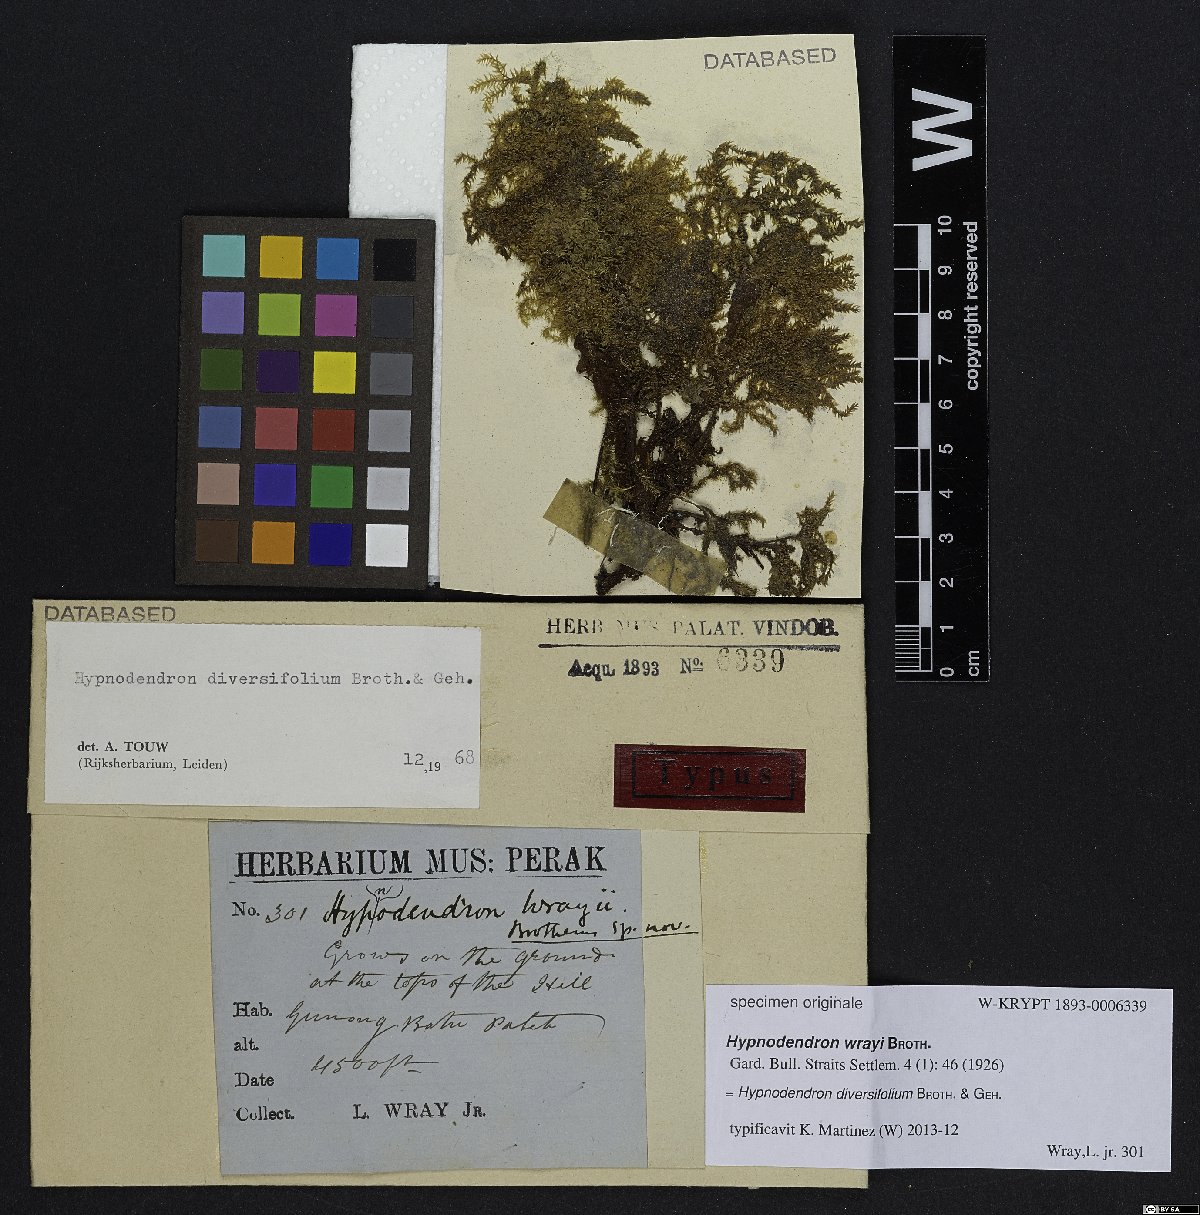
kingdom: Plantae
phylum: Bryophyta
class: Bryopsida
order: Hypnodendrales
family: Spiridentaceae
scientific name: Spiridentaceae
